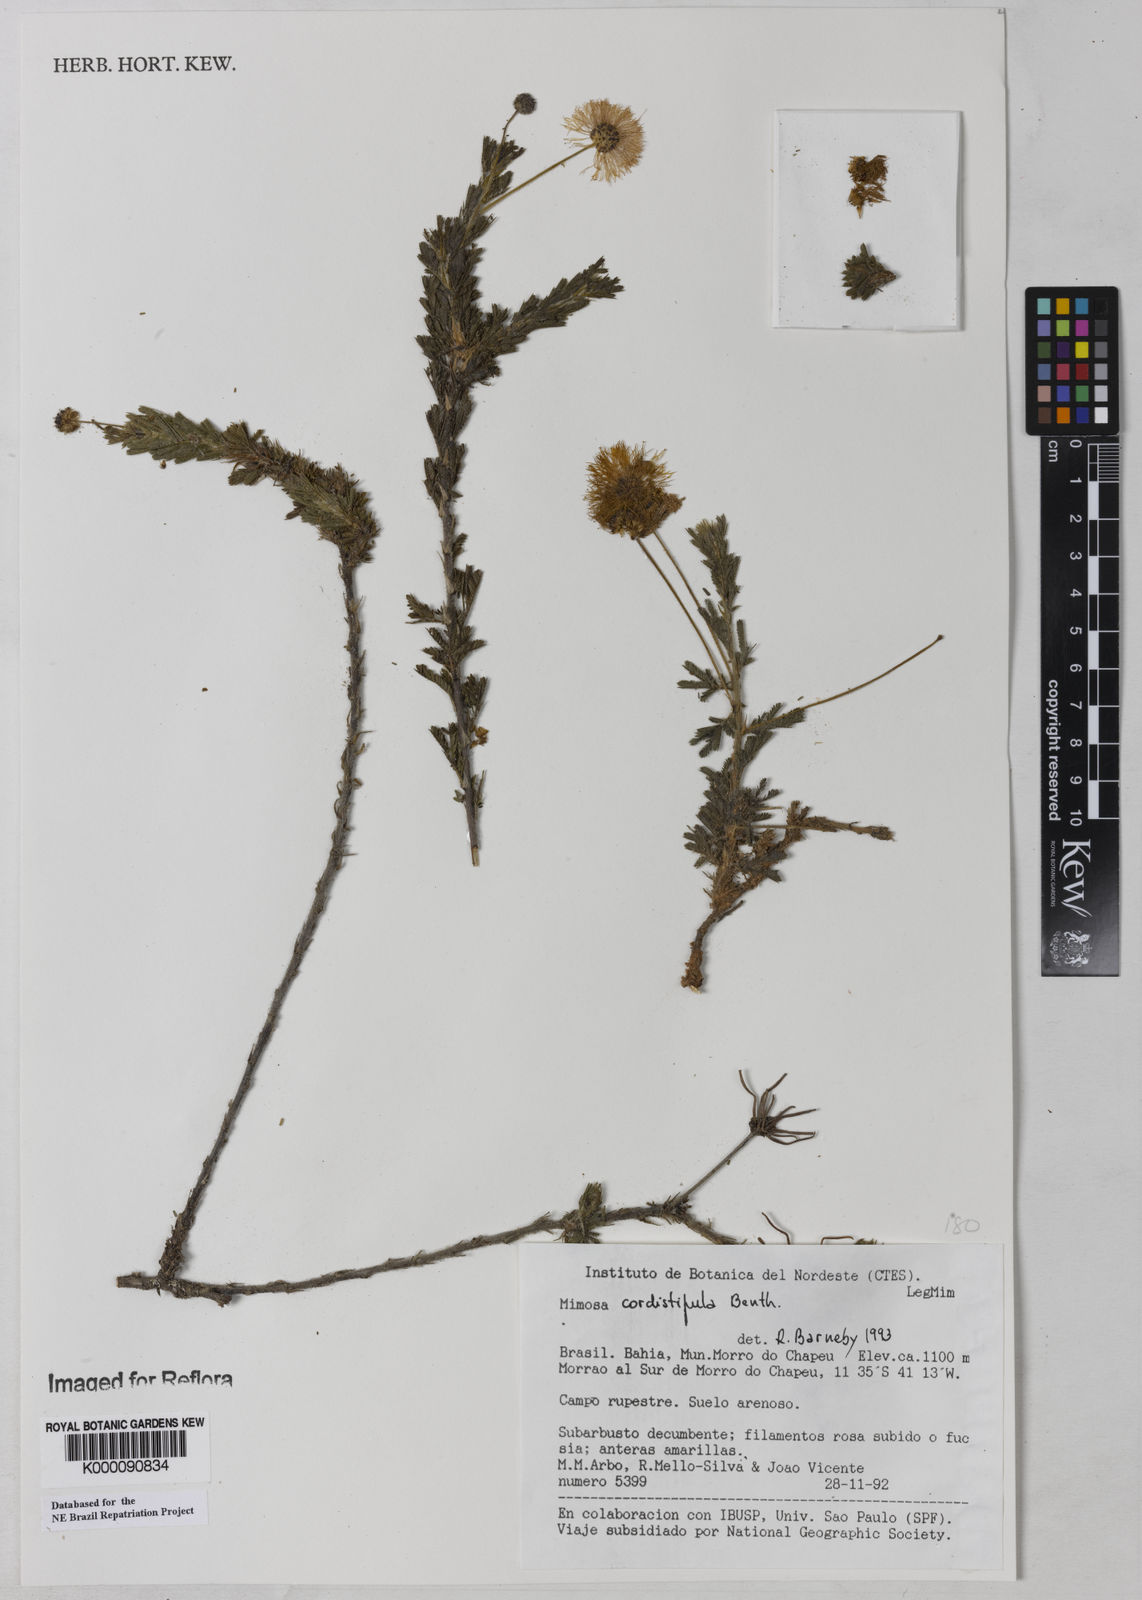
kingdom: Plantae
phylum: Tracheophyta
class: Magnoliopsida
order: Fabales
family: Fabaceae
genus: Mimosa
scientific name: Mimosa cordistipula
